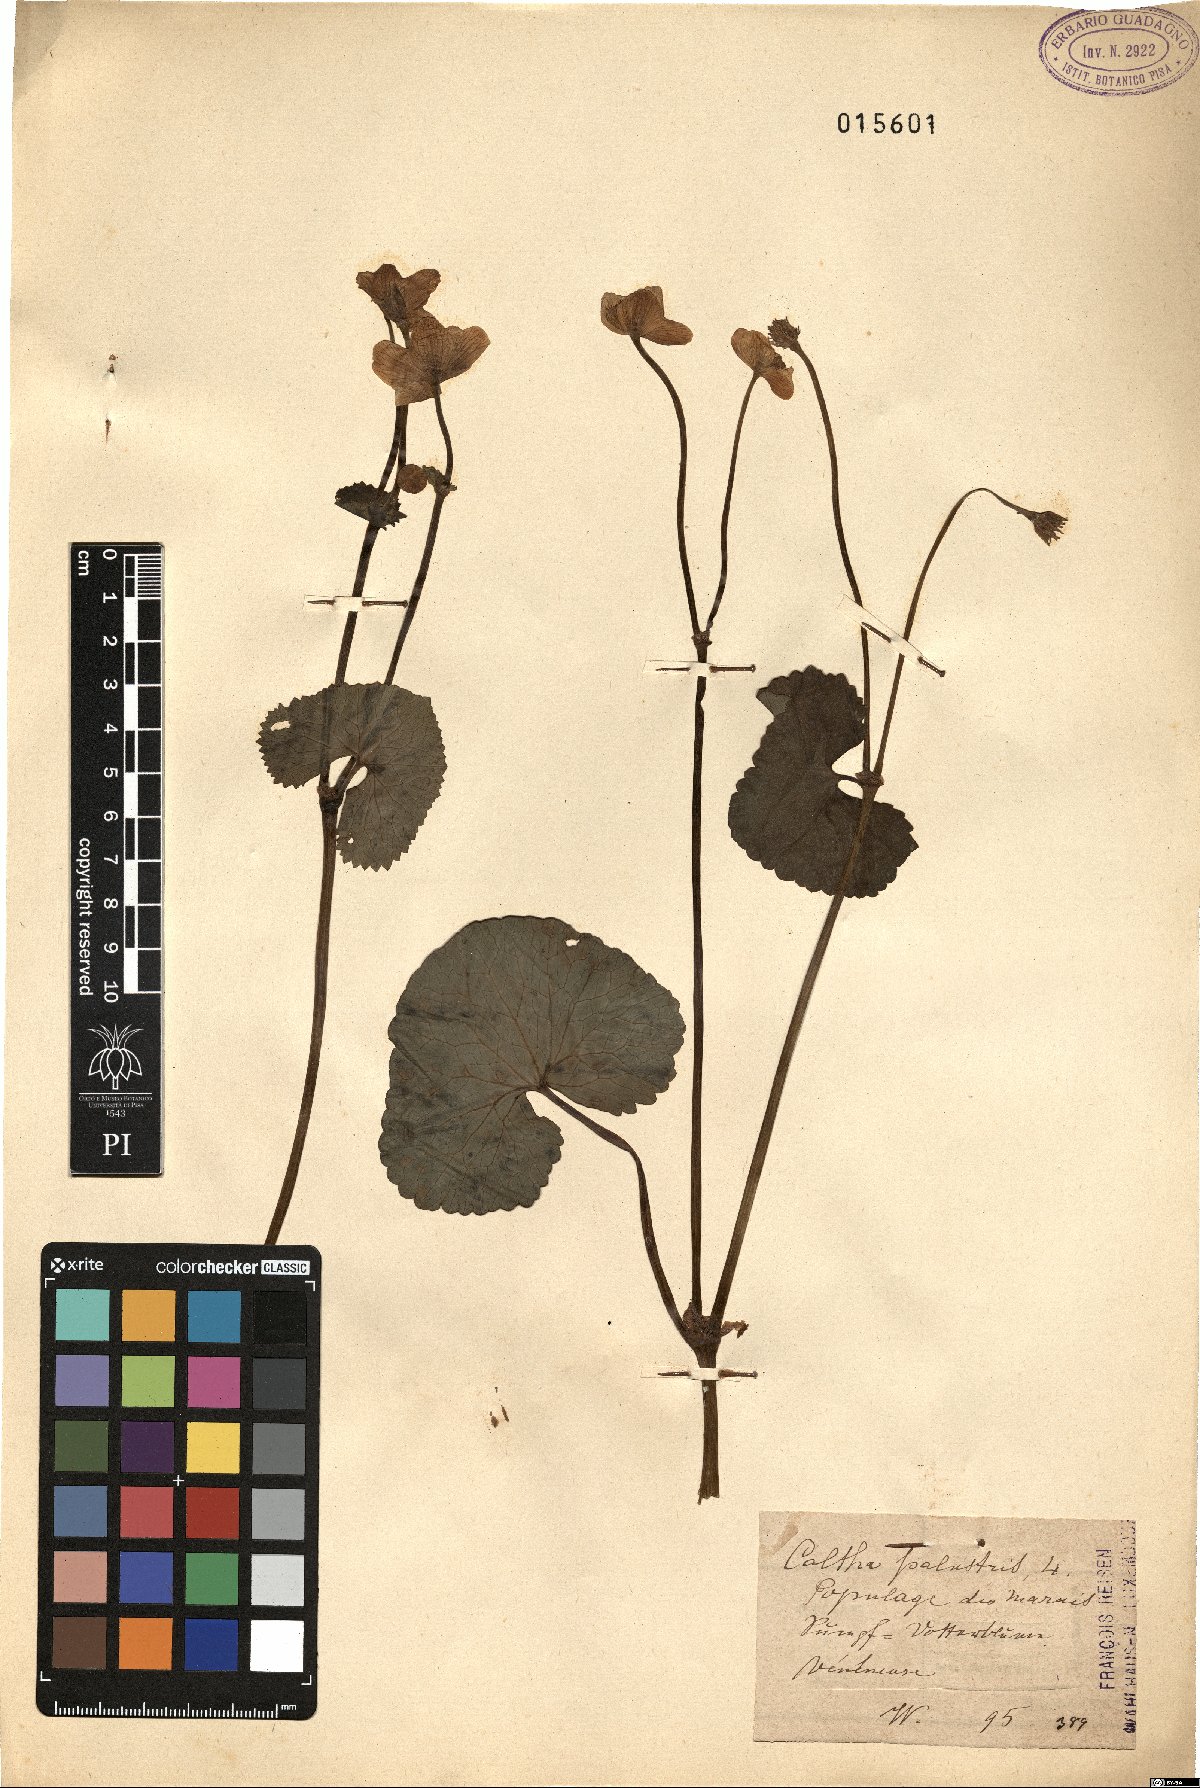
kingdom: Plantae
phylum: Tracheophyta
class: Magnoliopsida
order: Ranunculales
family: Ranunculaceae
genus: Caltha
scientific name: Caltha palustris
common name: Marsh marigold
